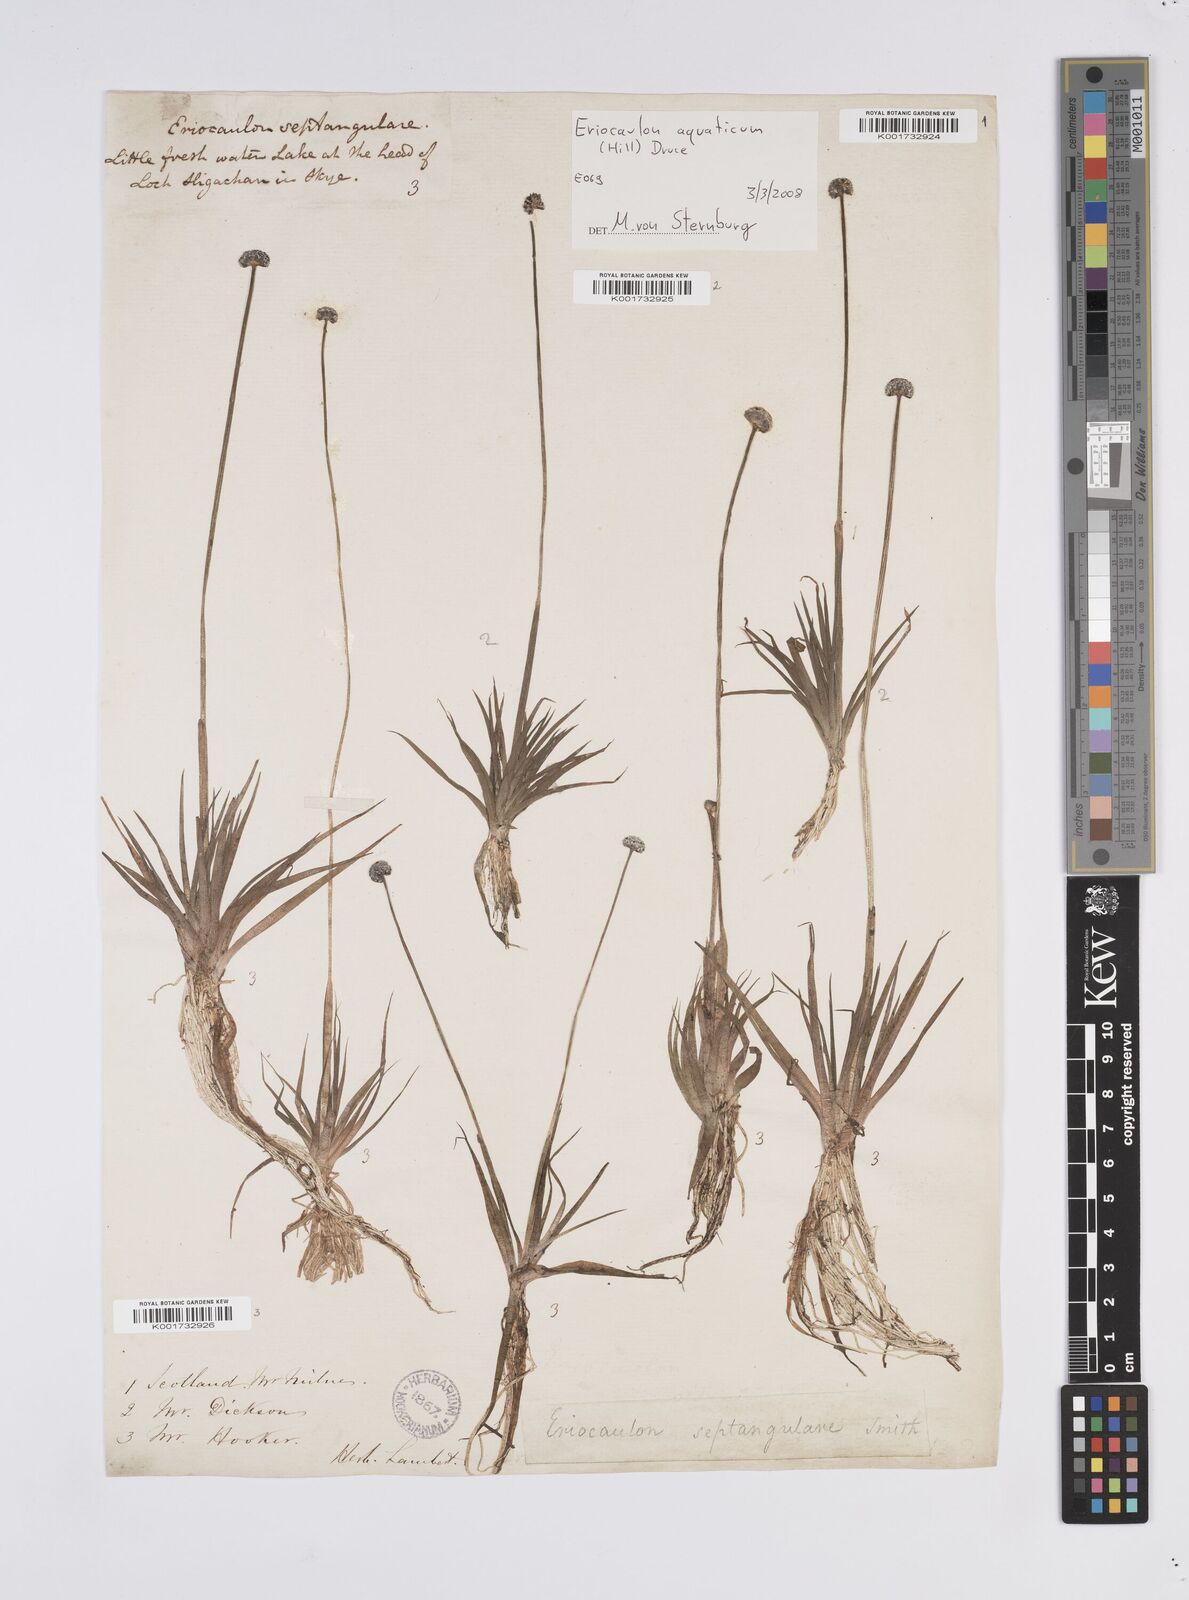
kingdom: Plantae
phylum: Tracheophyta
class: Liliopsida
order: Poales
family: Eriocaulaceae
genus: Eriocaulon
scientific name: Eriocaulon aquaticum
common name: Pipewort
